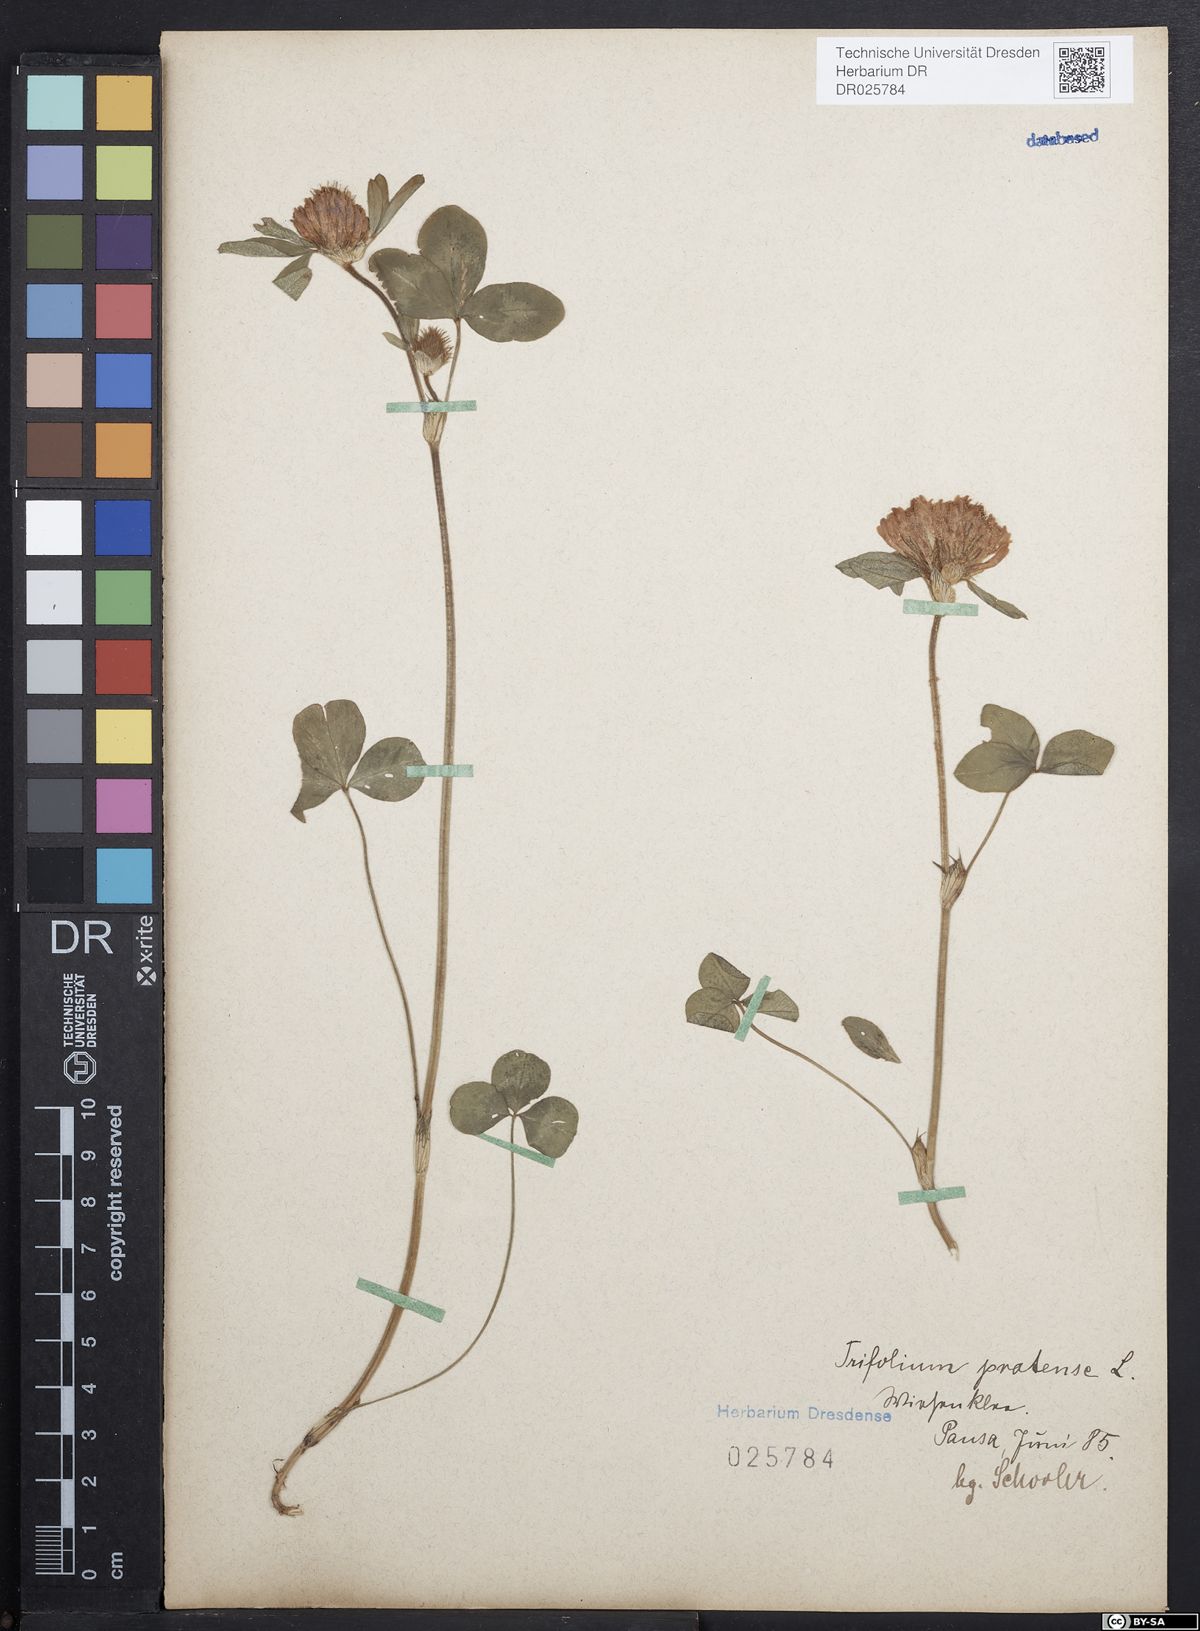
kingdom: Plantae
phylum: Tracheophyta
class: Magnoliopsida
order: Fabales
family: Fabaceae
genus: Trifolium
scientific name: Trifolium pratense
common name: Red clover
